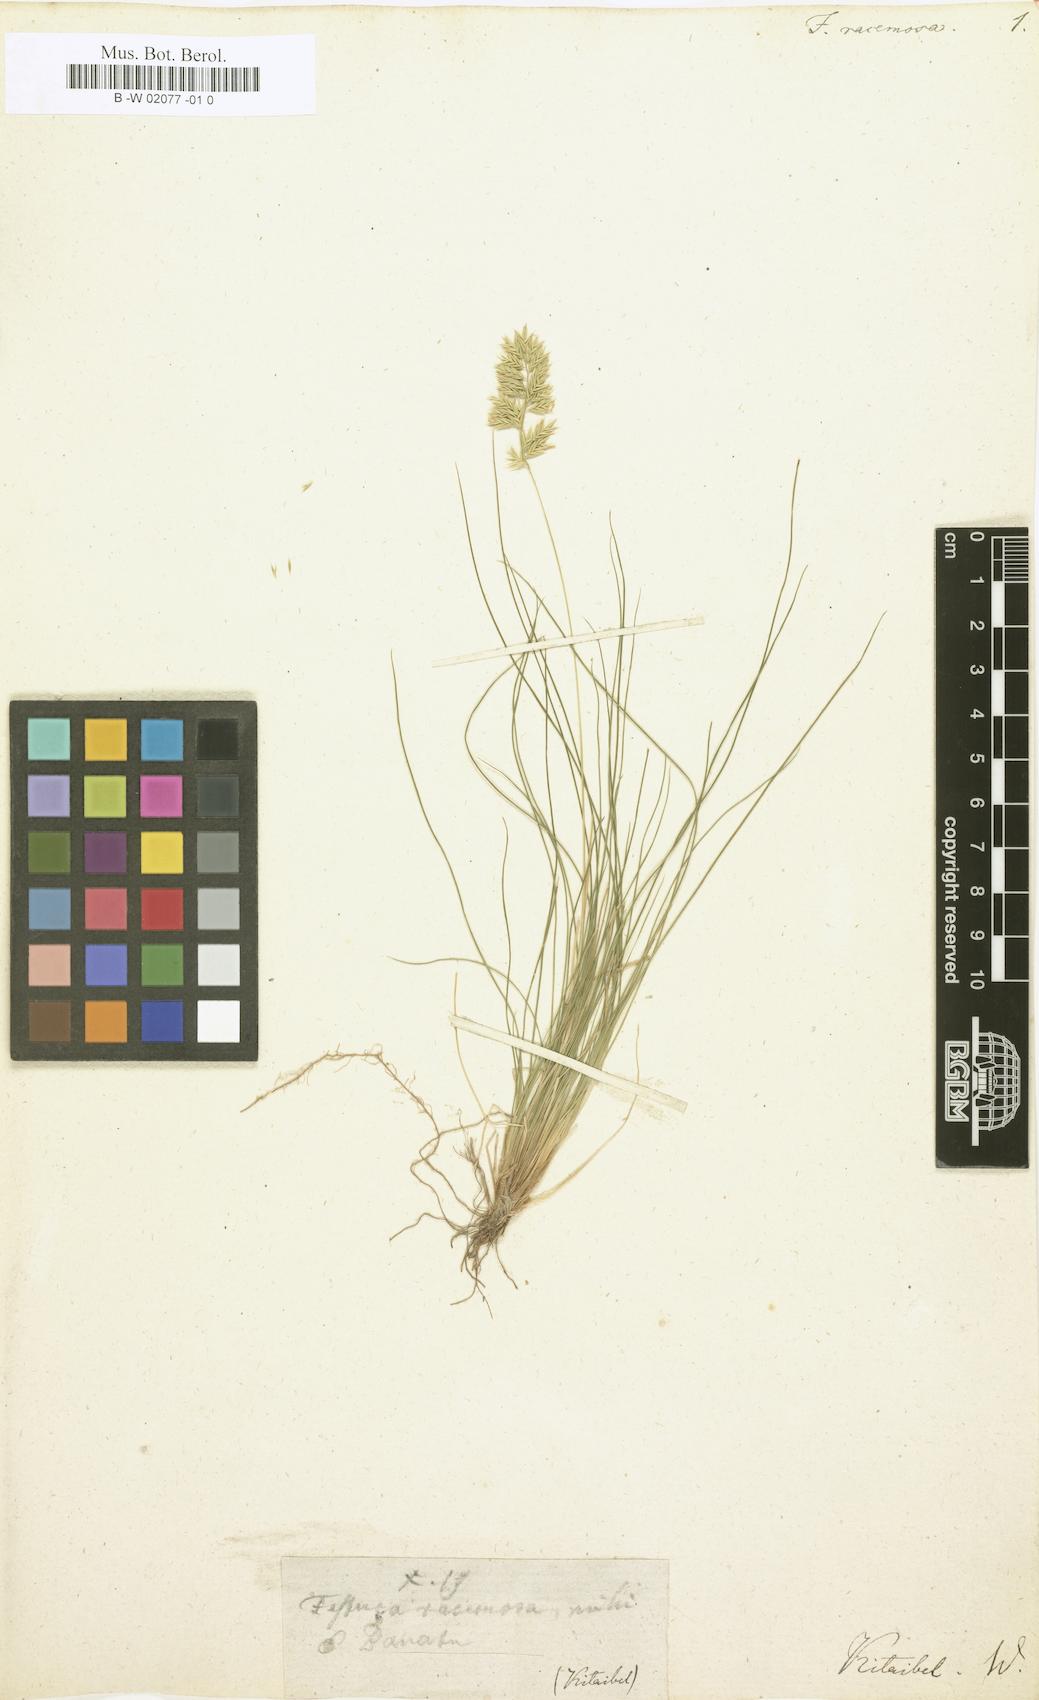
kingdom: Plantae
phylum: Tracheophyta
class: Liliopsida
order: Poales
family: Poaceae
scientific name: Poaceae
